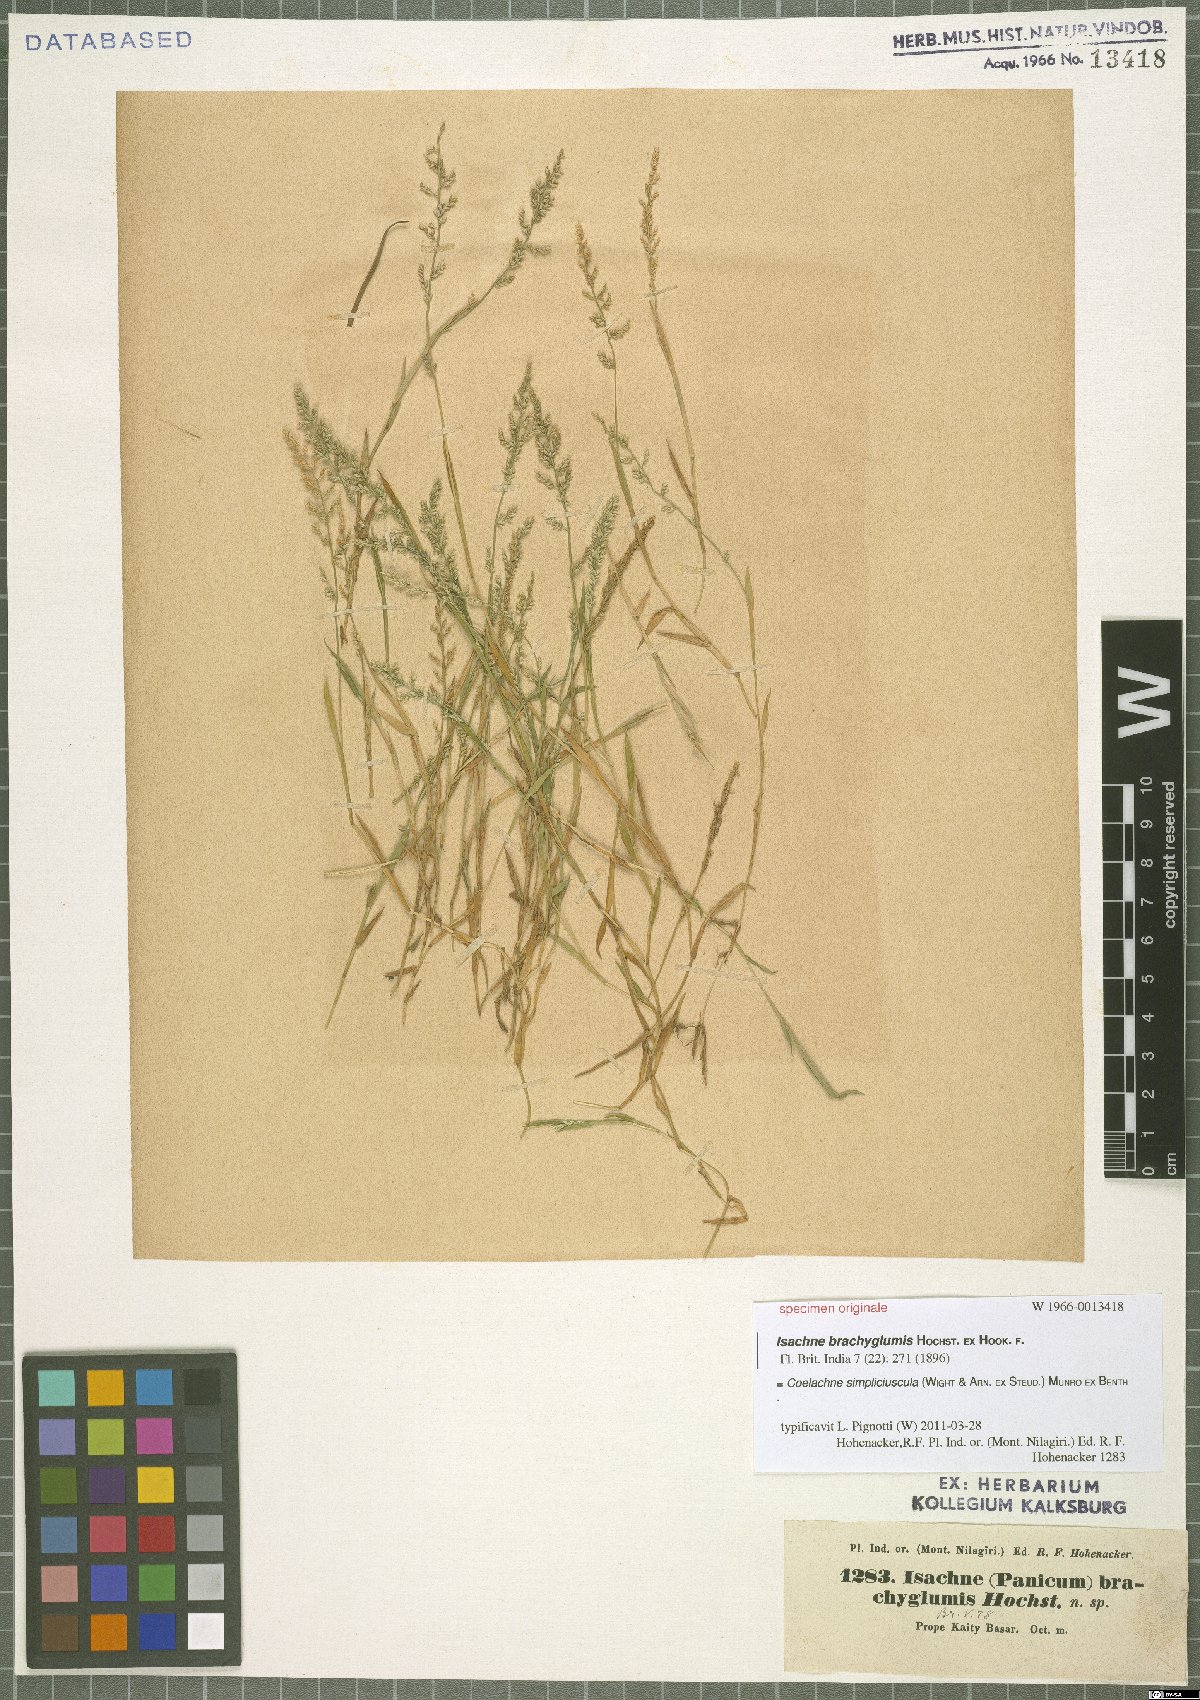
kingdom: Plantae
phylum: Tracheophyta
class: Liliopsida
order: Poales
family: Poaceae
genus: Coelachne
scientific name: Coelachne simpliciuscula
